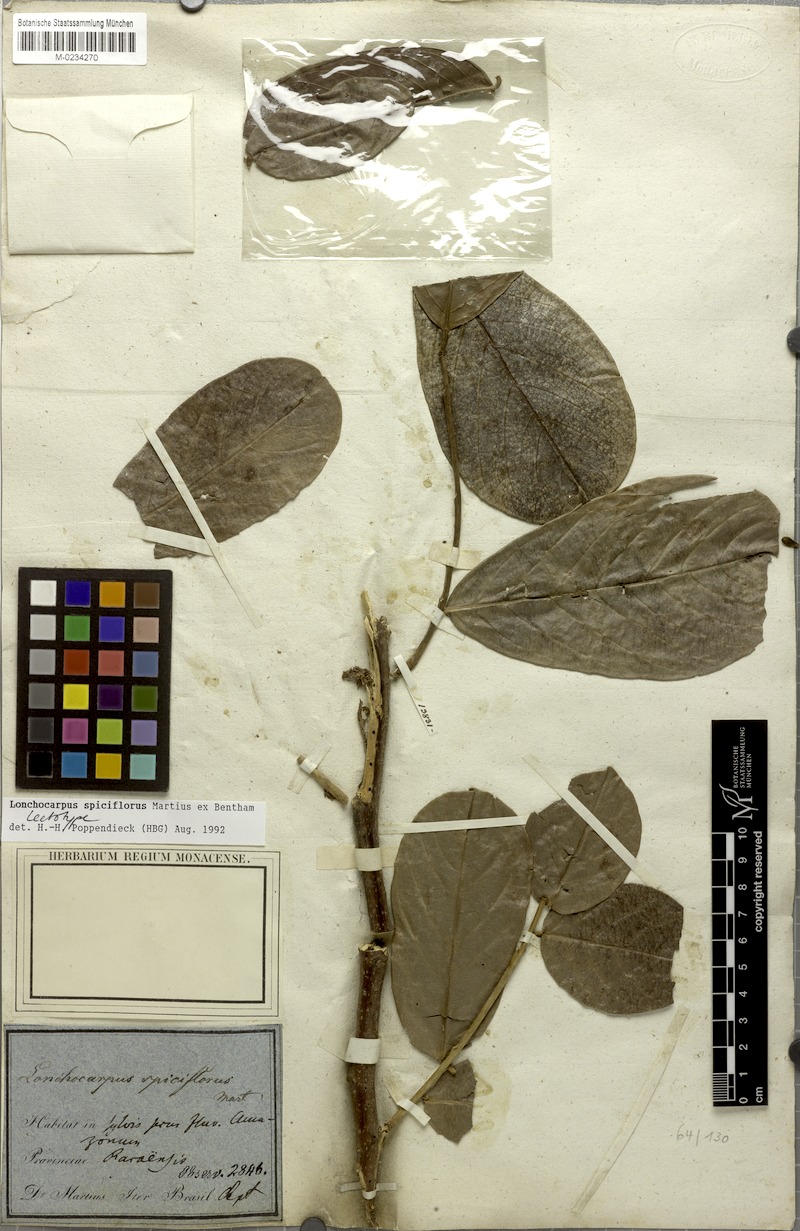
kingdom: Plantae
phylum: Tracheophyta
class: Magnoliopsida
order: Fabales
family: Fabaceae
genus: Lonchocarpus
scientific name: Lonchocarpus spiciflorus
